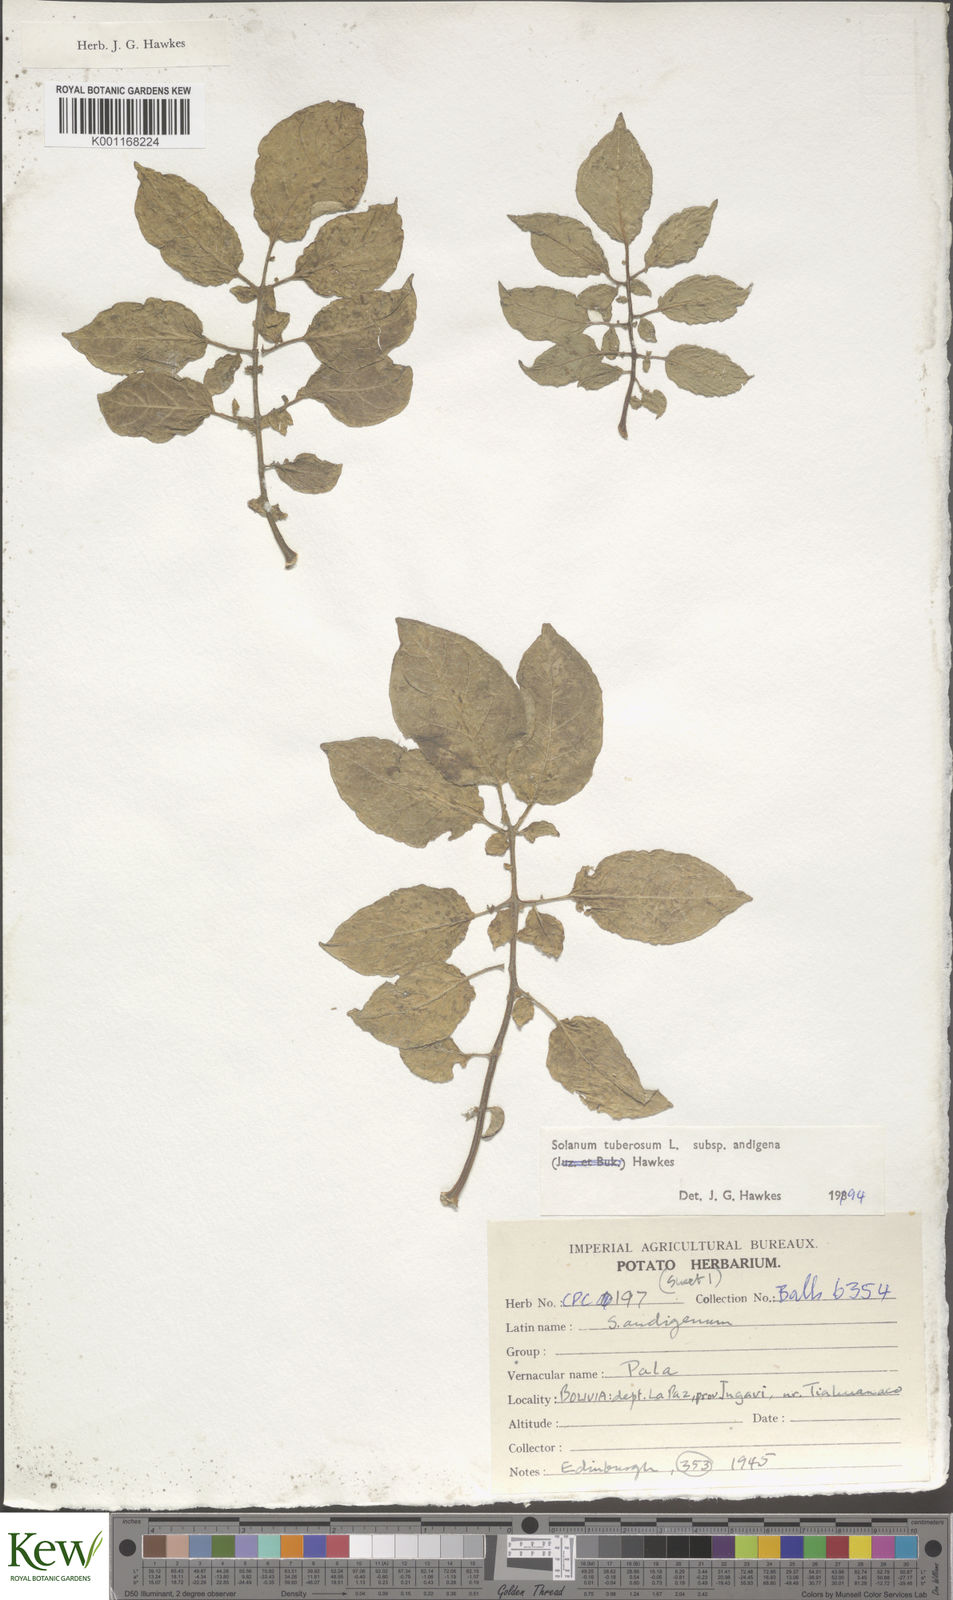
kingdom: Plantae
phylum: Tracheophyta
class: Magnoliopsida
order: Solanales
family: Solanaceae
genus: Solanum
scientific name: Solanum tuberosum
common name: Potato
